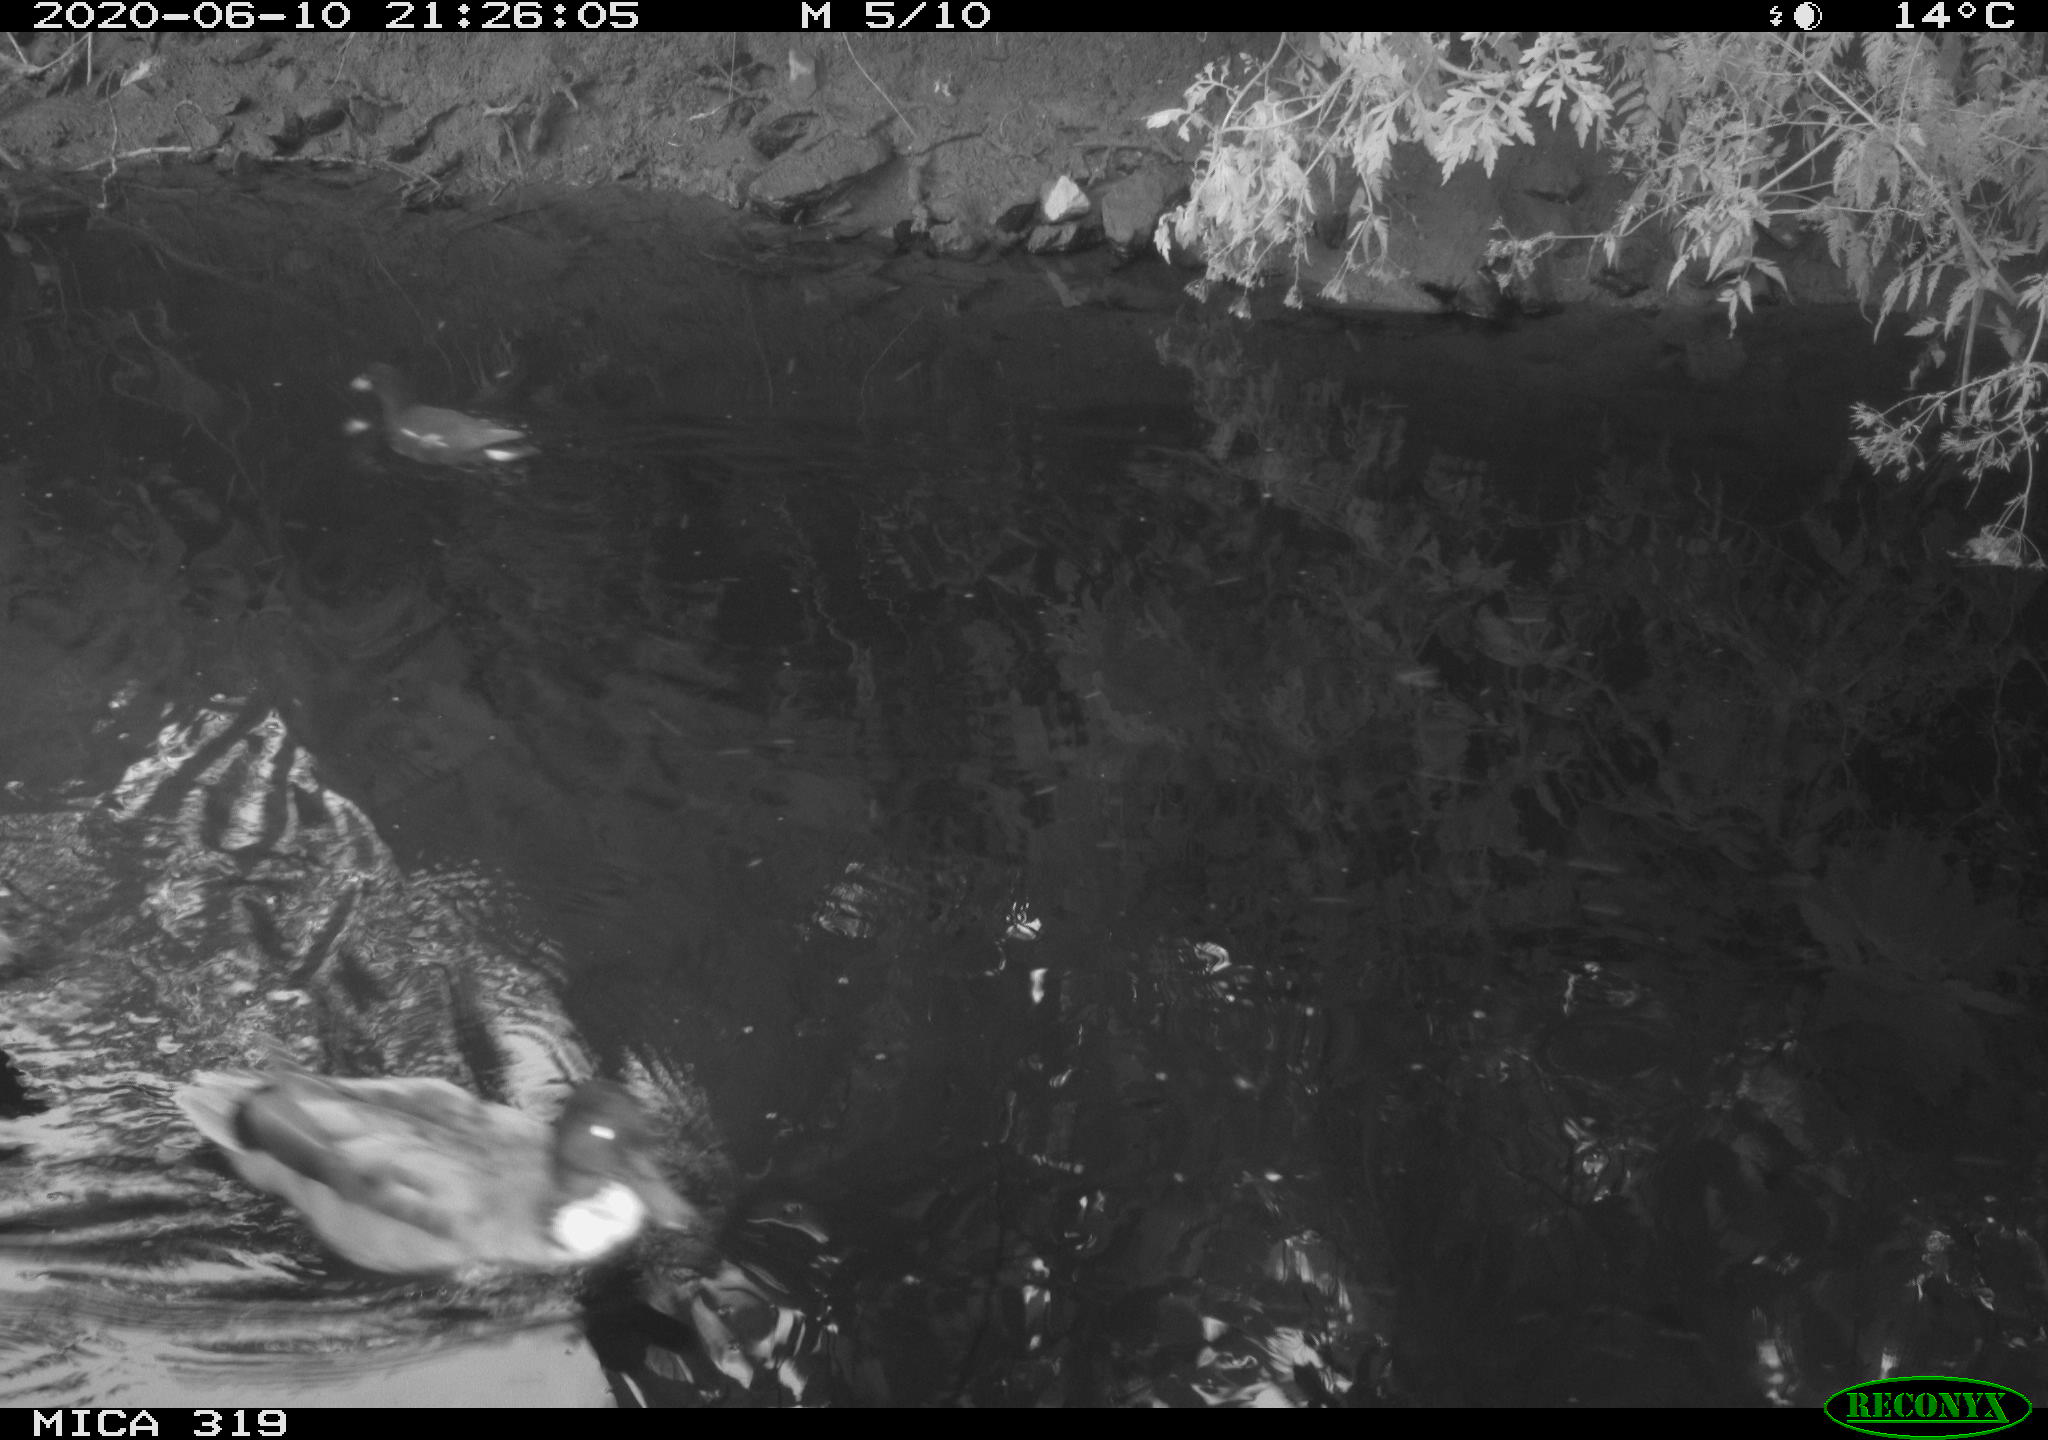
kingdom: Animalia
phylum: Chordata
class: Aves
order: Gruiformes
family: Rallidae
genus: Gallinula
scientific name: Gallinula chloropus
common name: Common moorhen
